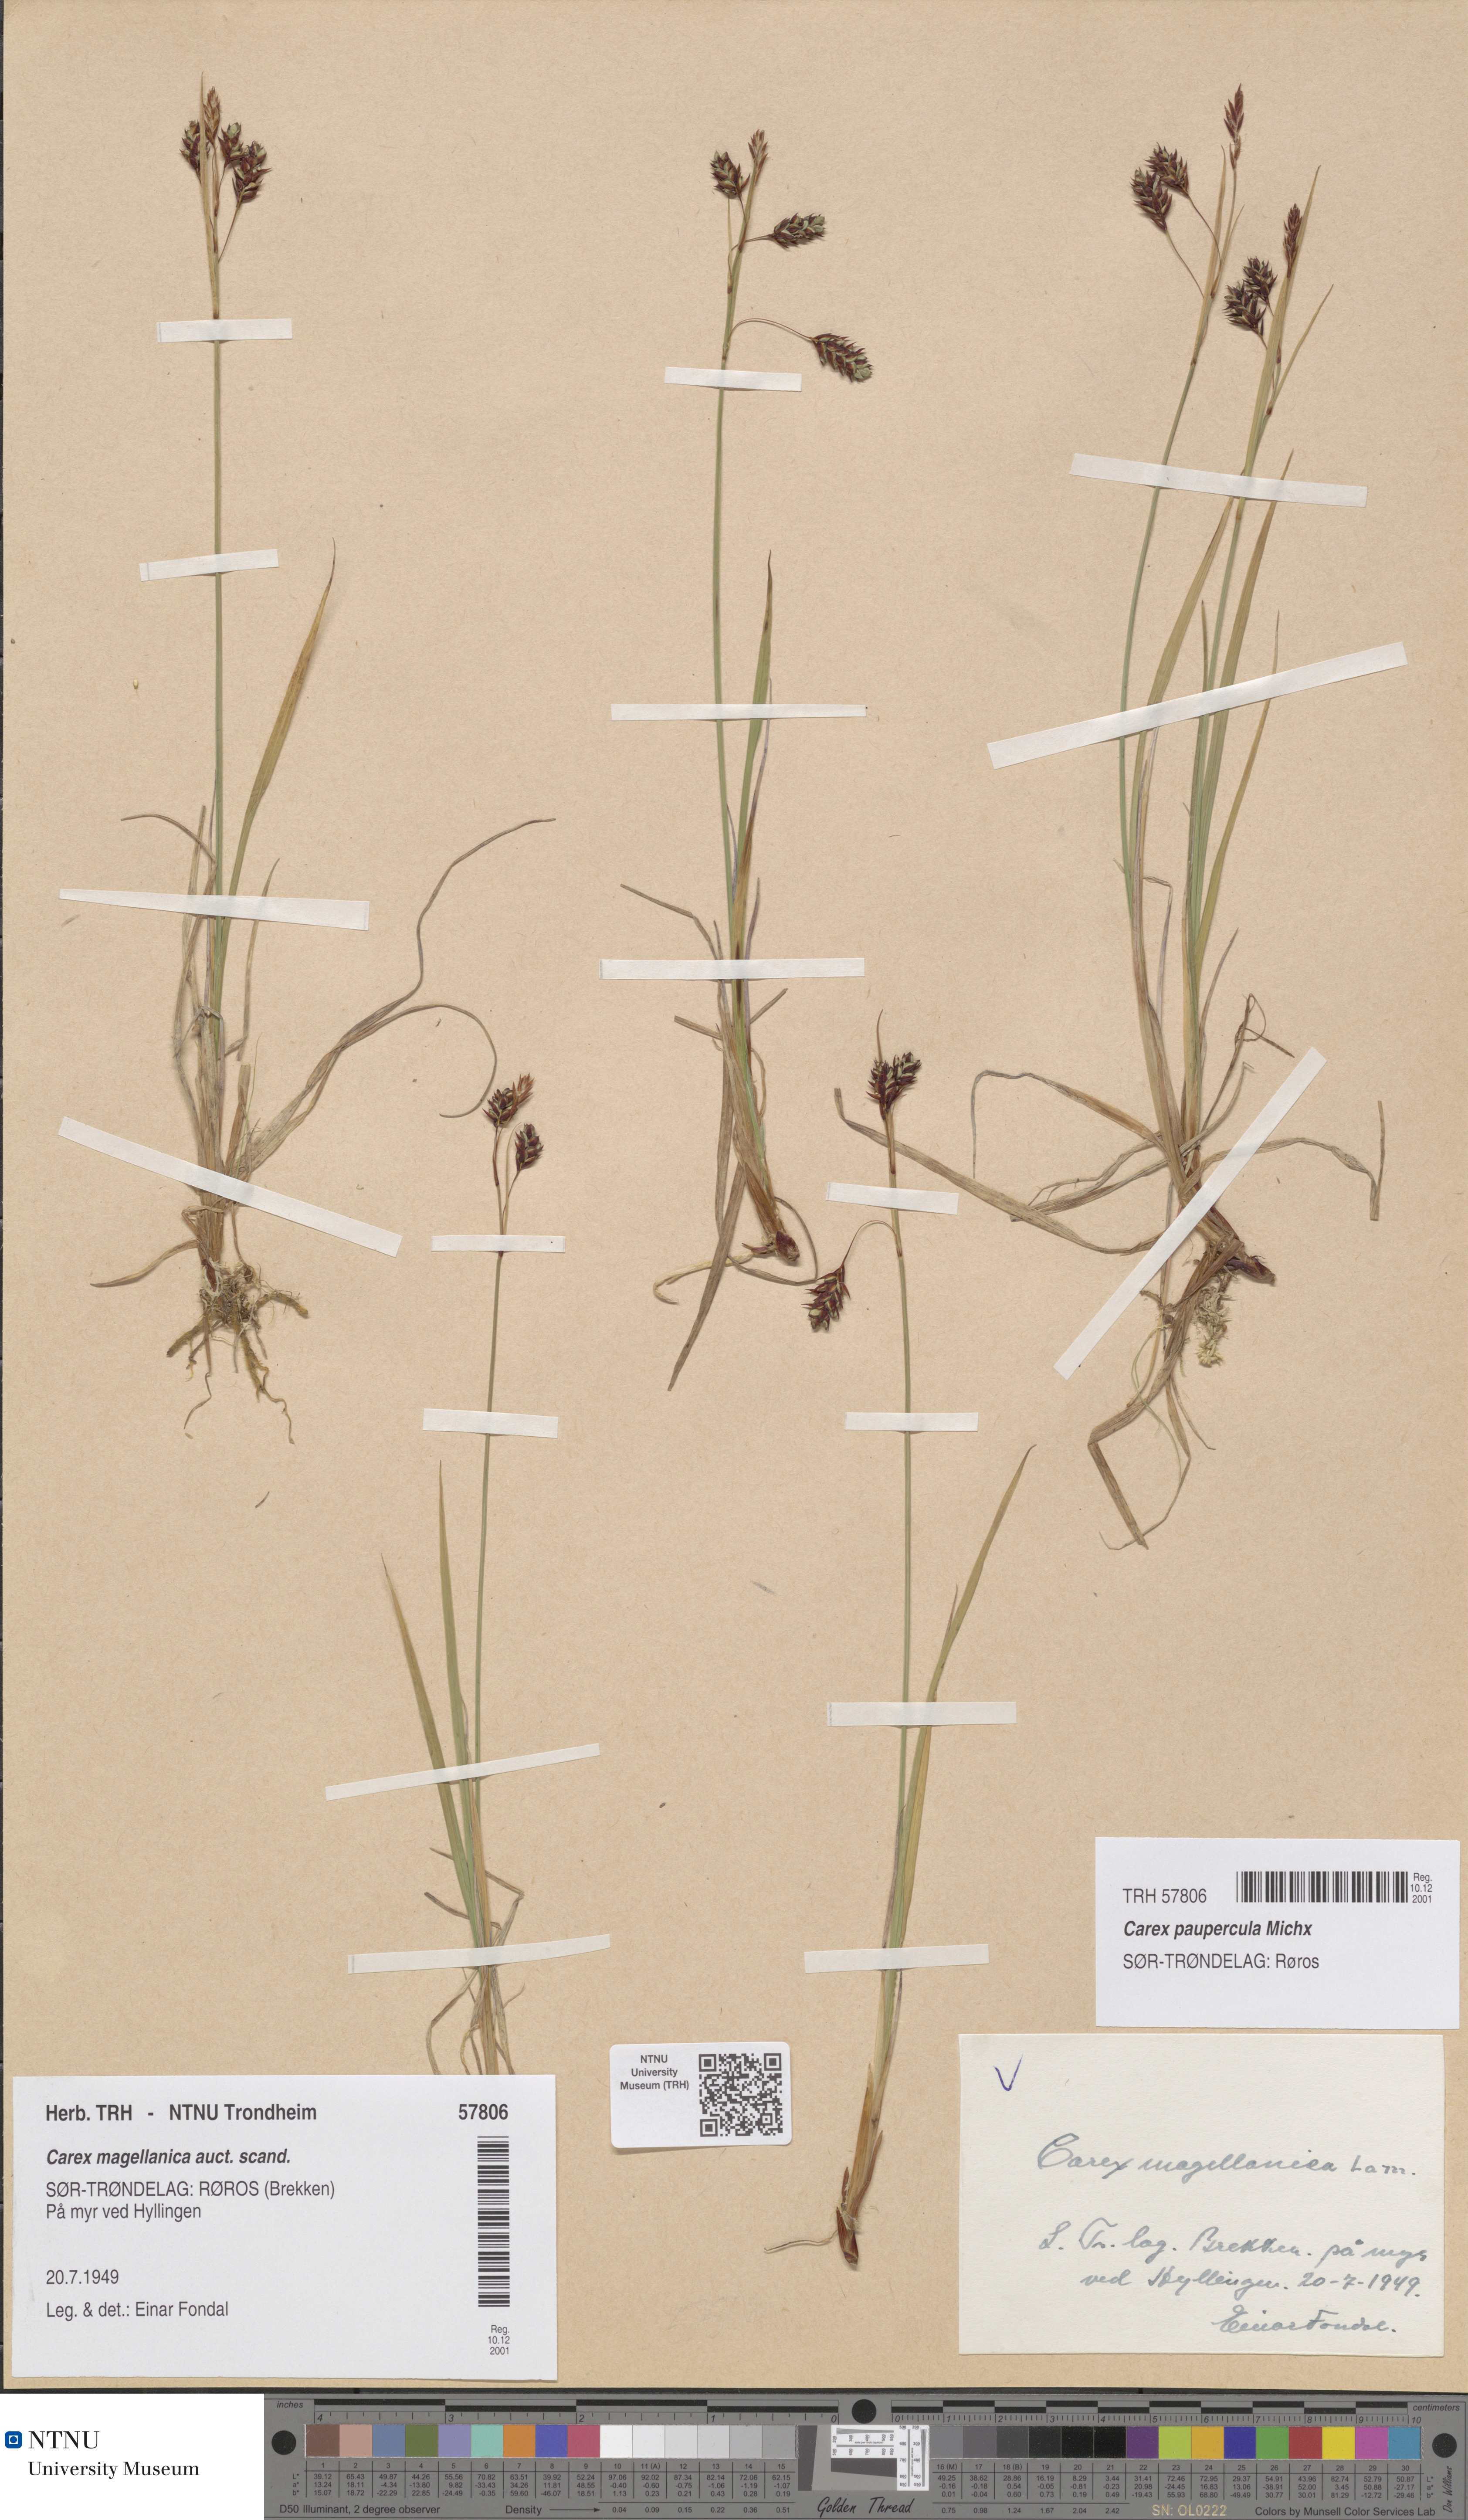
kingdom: Plantae
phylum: Tracheophyta
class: Liliopsida
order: Poales
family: Cyperaceae
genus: Carex
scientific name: Carex magellanica
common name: Bog sedge
